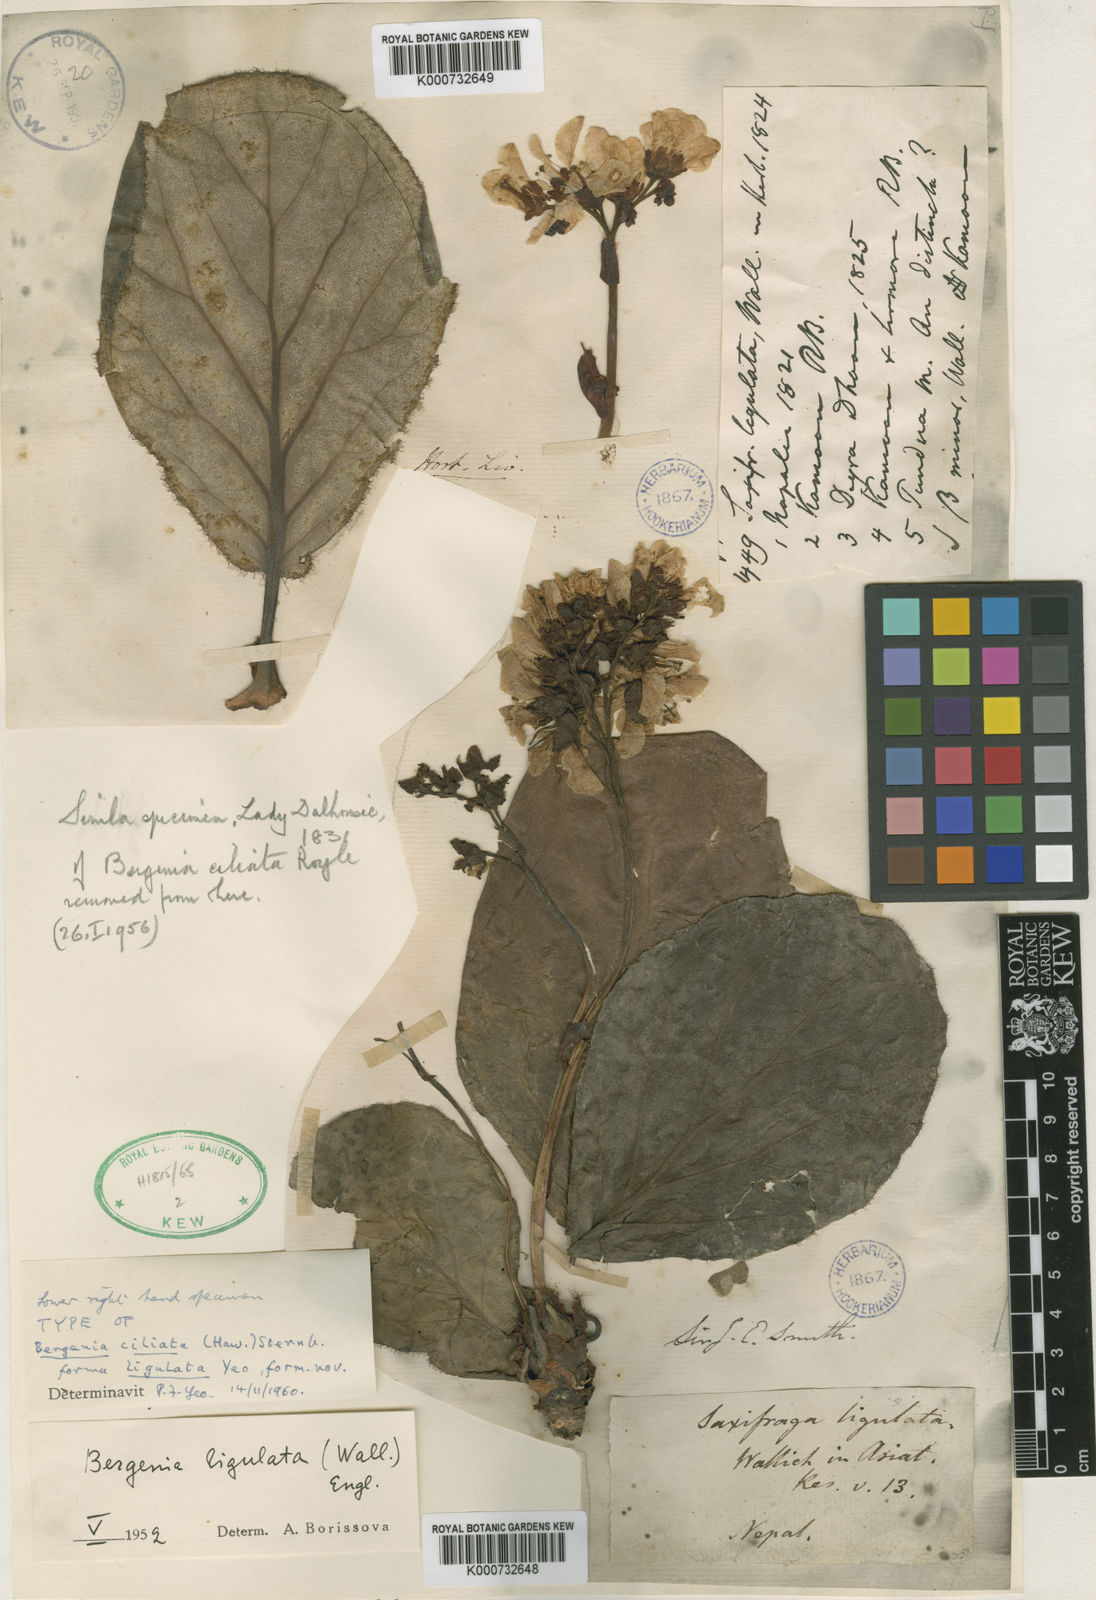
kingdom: Plantae
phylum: Tracheophyta
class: Magnoliopsida
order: Saxifragales
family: Saxifragaceae
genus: Bergenia
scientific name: Bergenia ciliata
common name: Hairy bergenia
